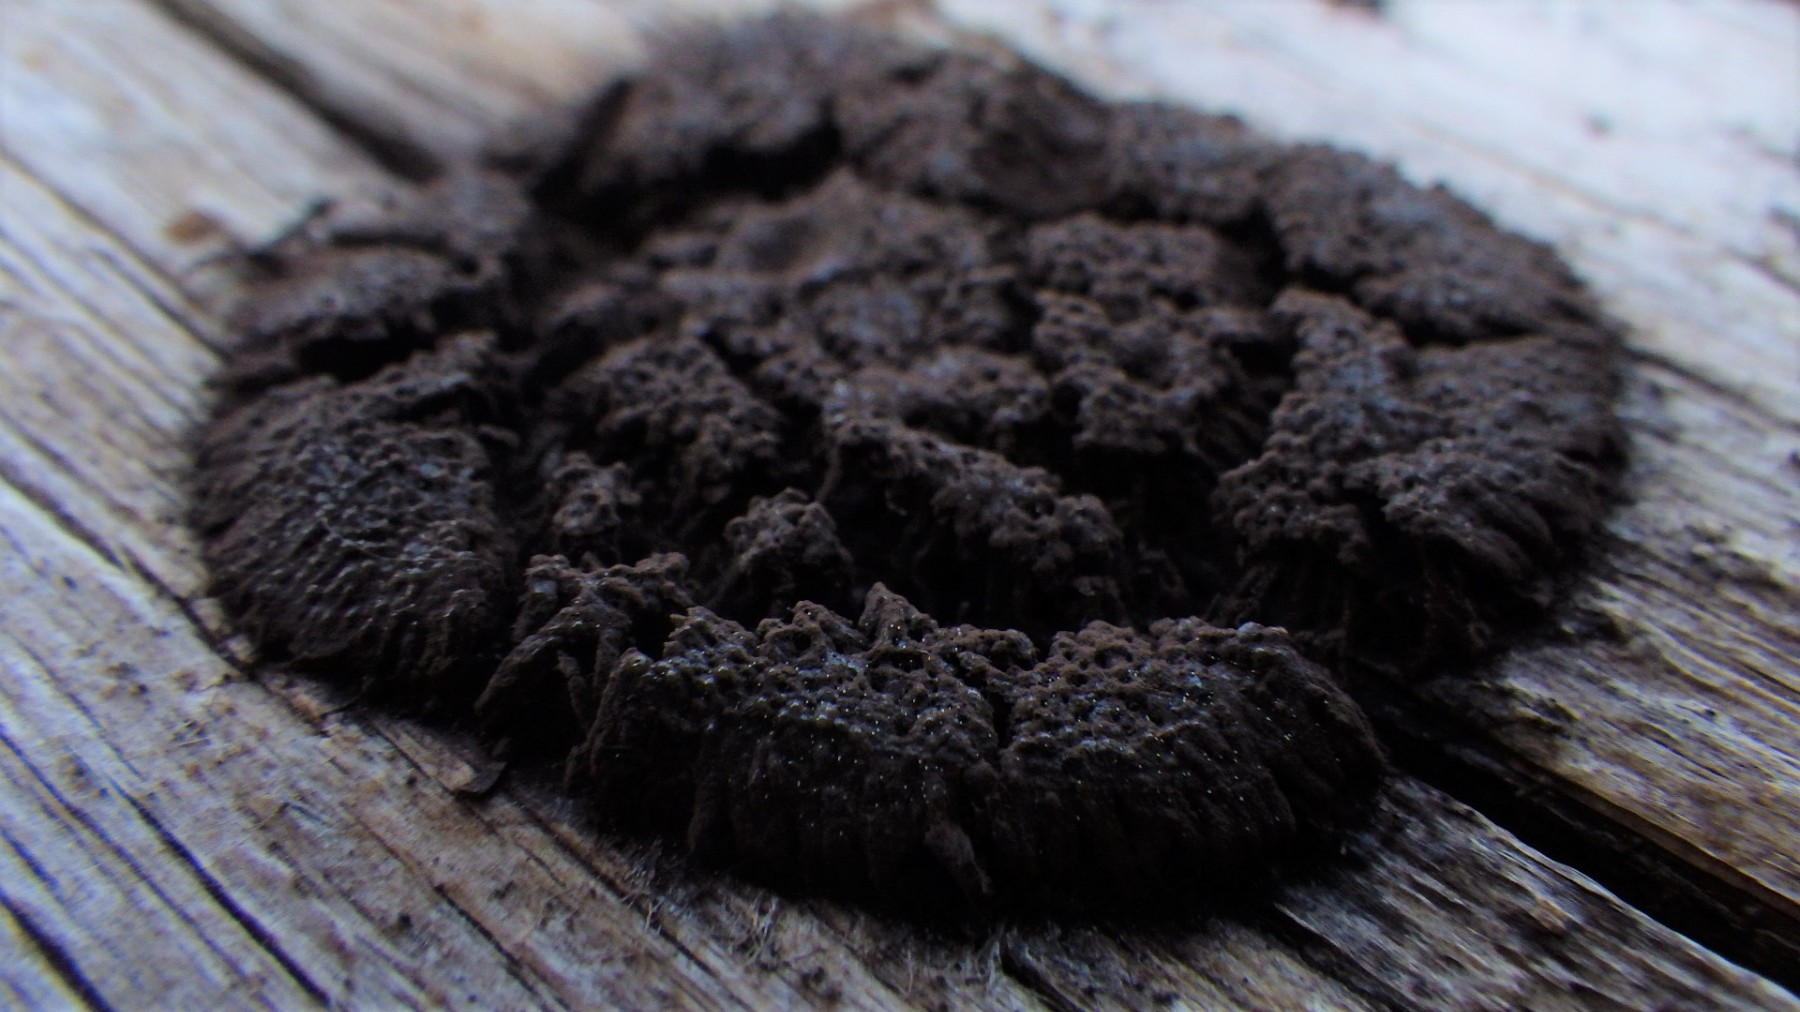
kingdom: Protozoa
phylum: Mycetozoa
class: Myxomycetes
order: Stemonitidales
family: Stemonitidaceae
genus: Symphytocarpus
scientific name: Symphytocarpus impexus
